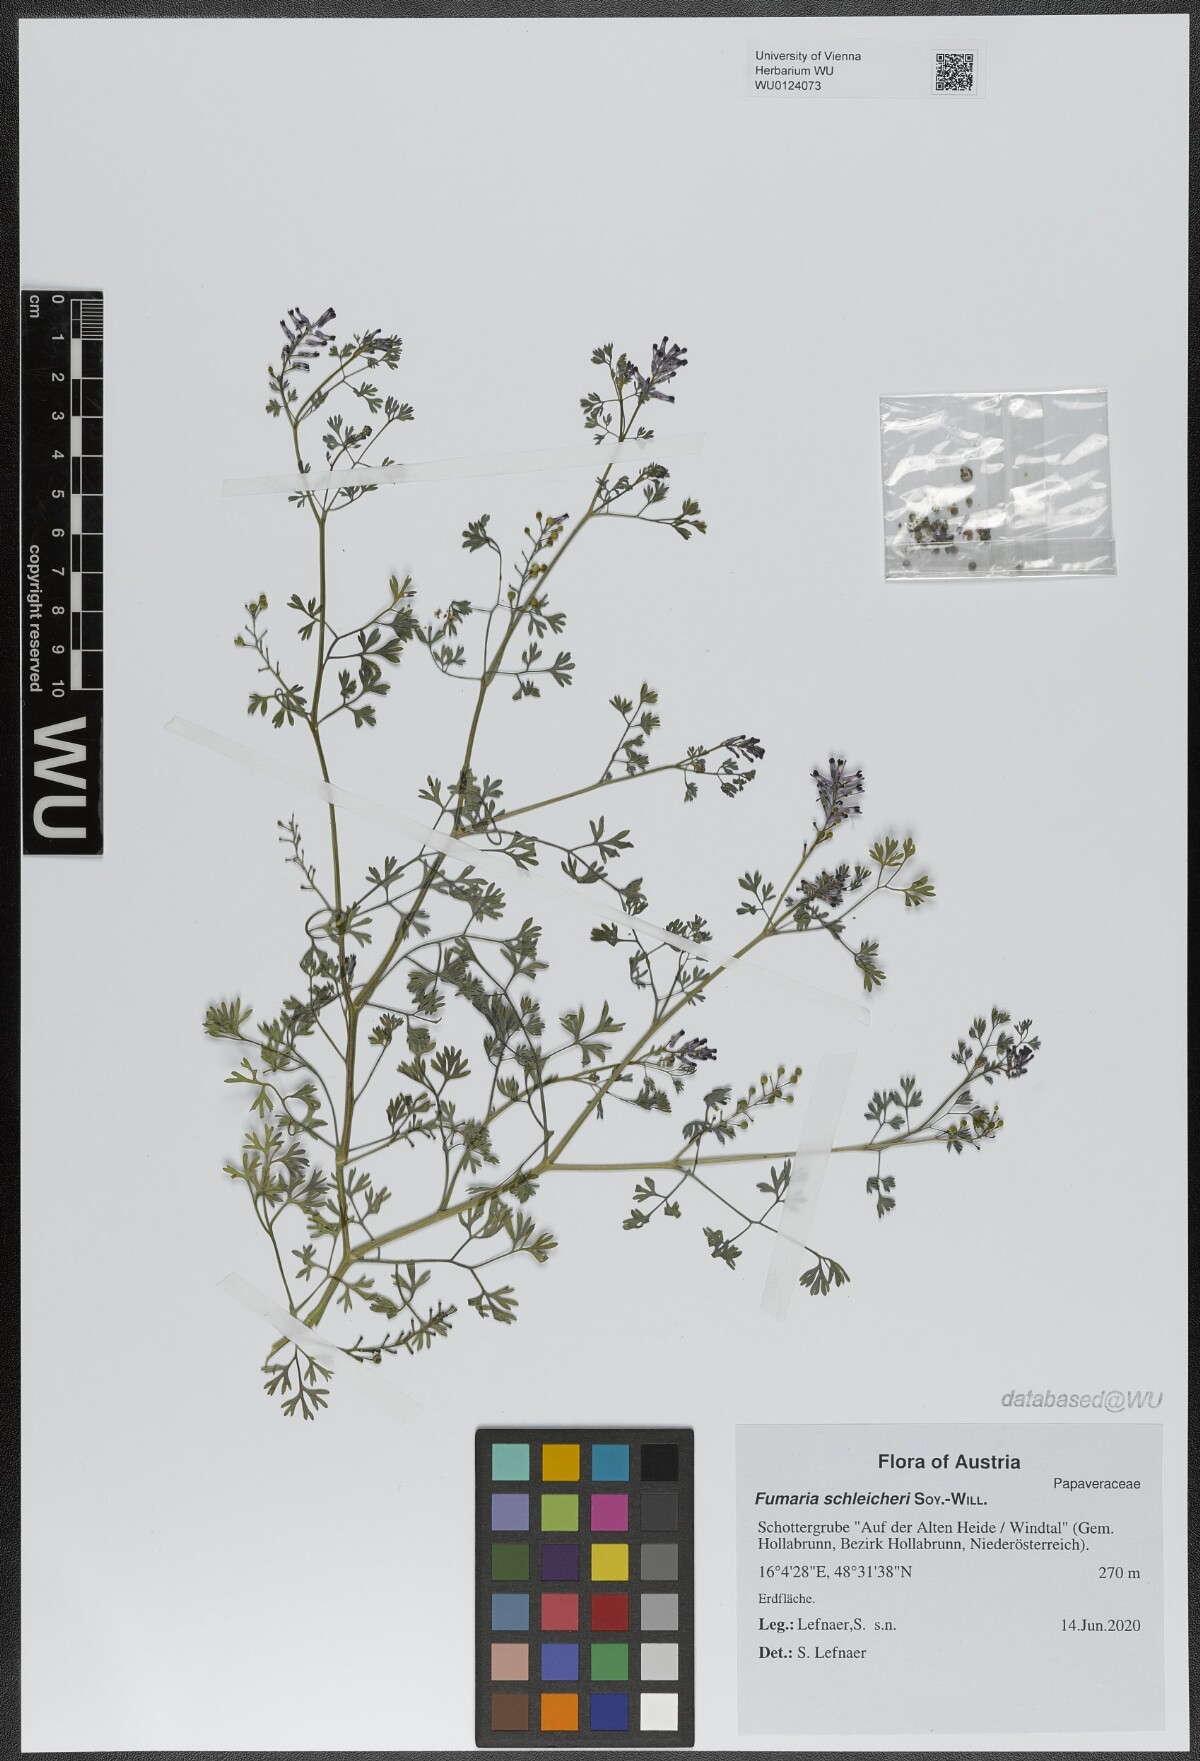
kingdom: Plantae
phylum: Tracheophyta
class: Magnoliopsida
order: Ranunculales
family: Papaveraceae
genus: Fumaria
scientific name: Fumaria schleicheri
